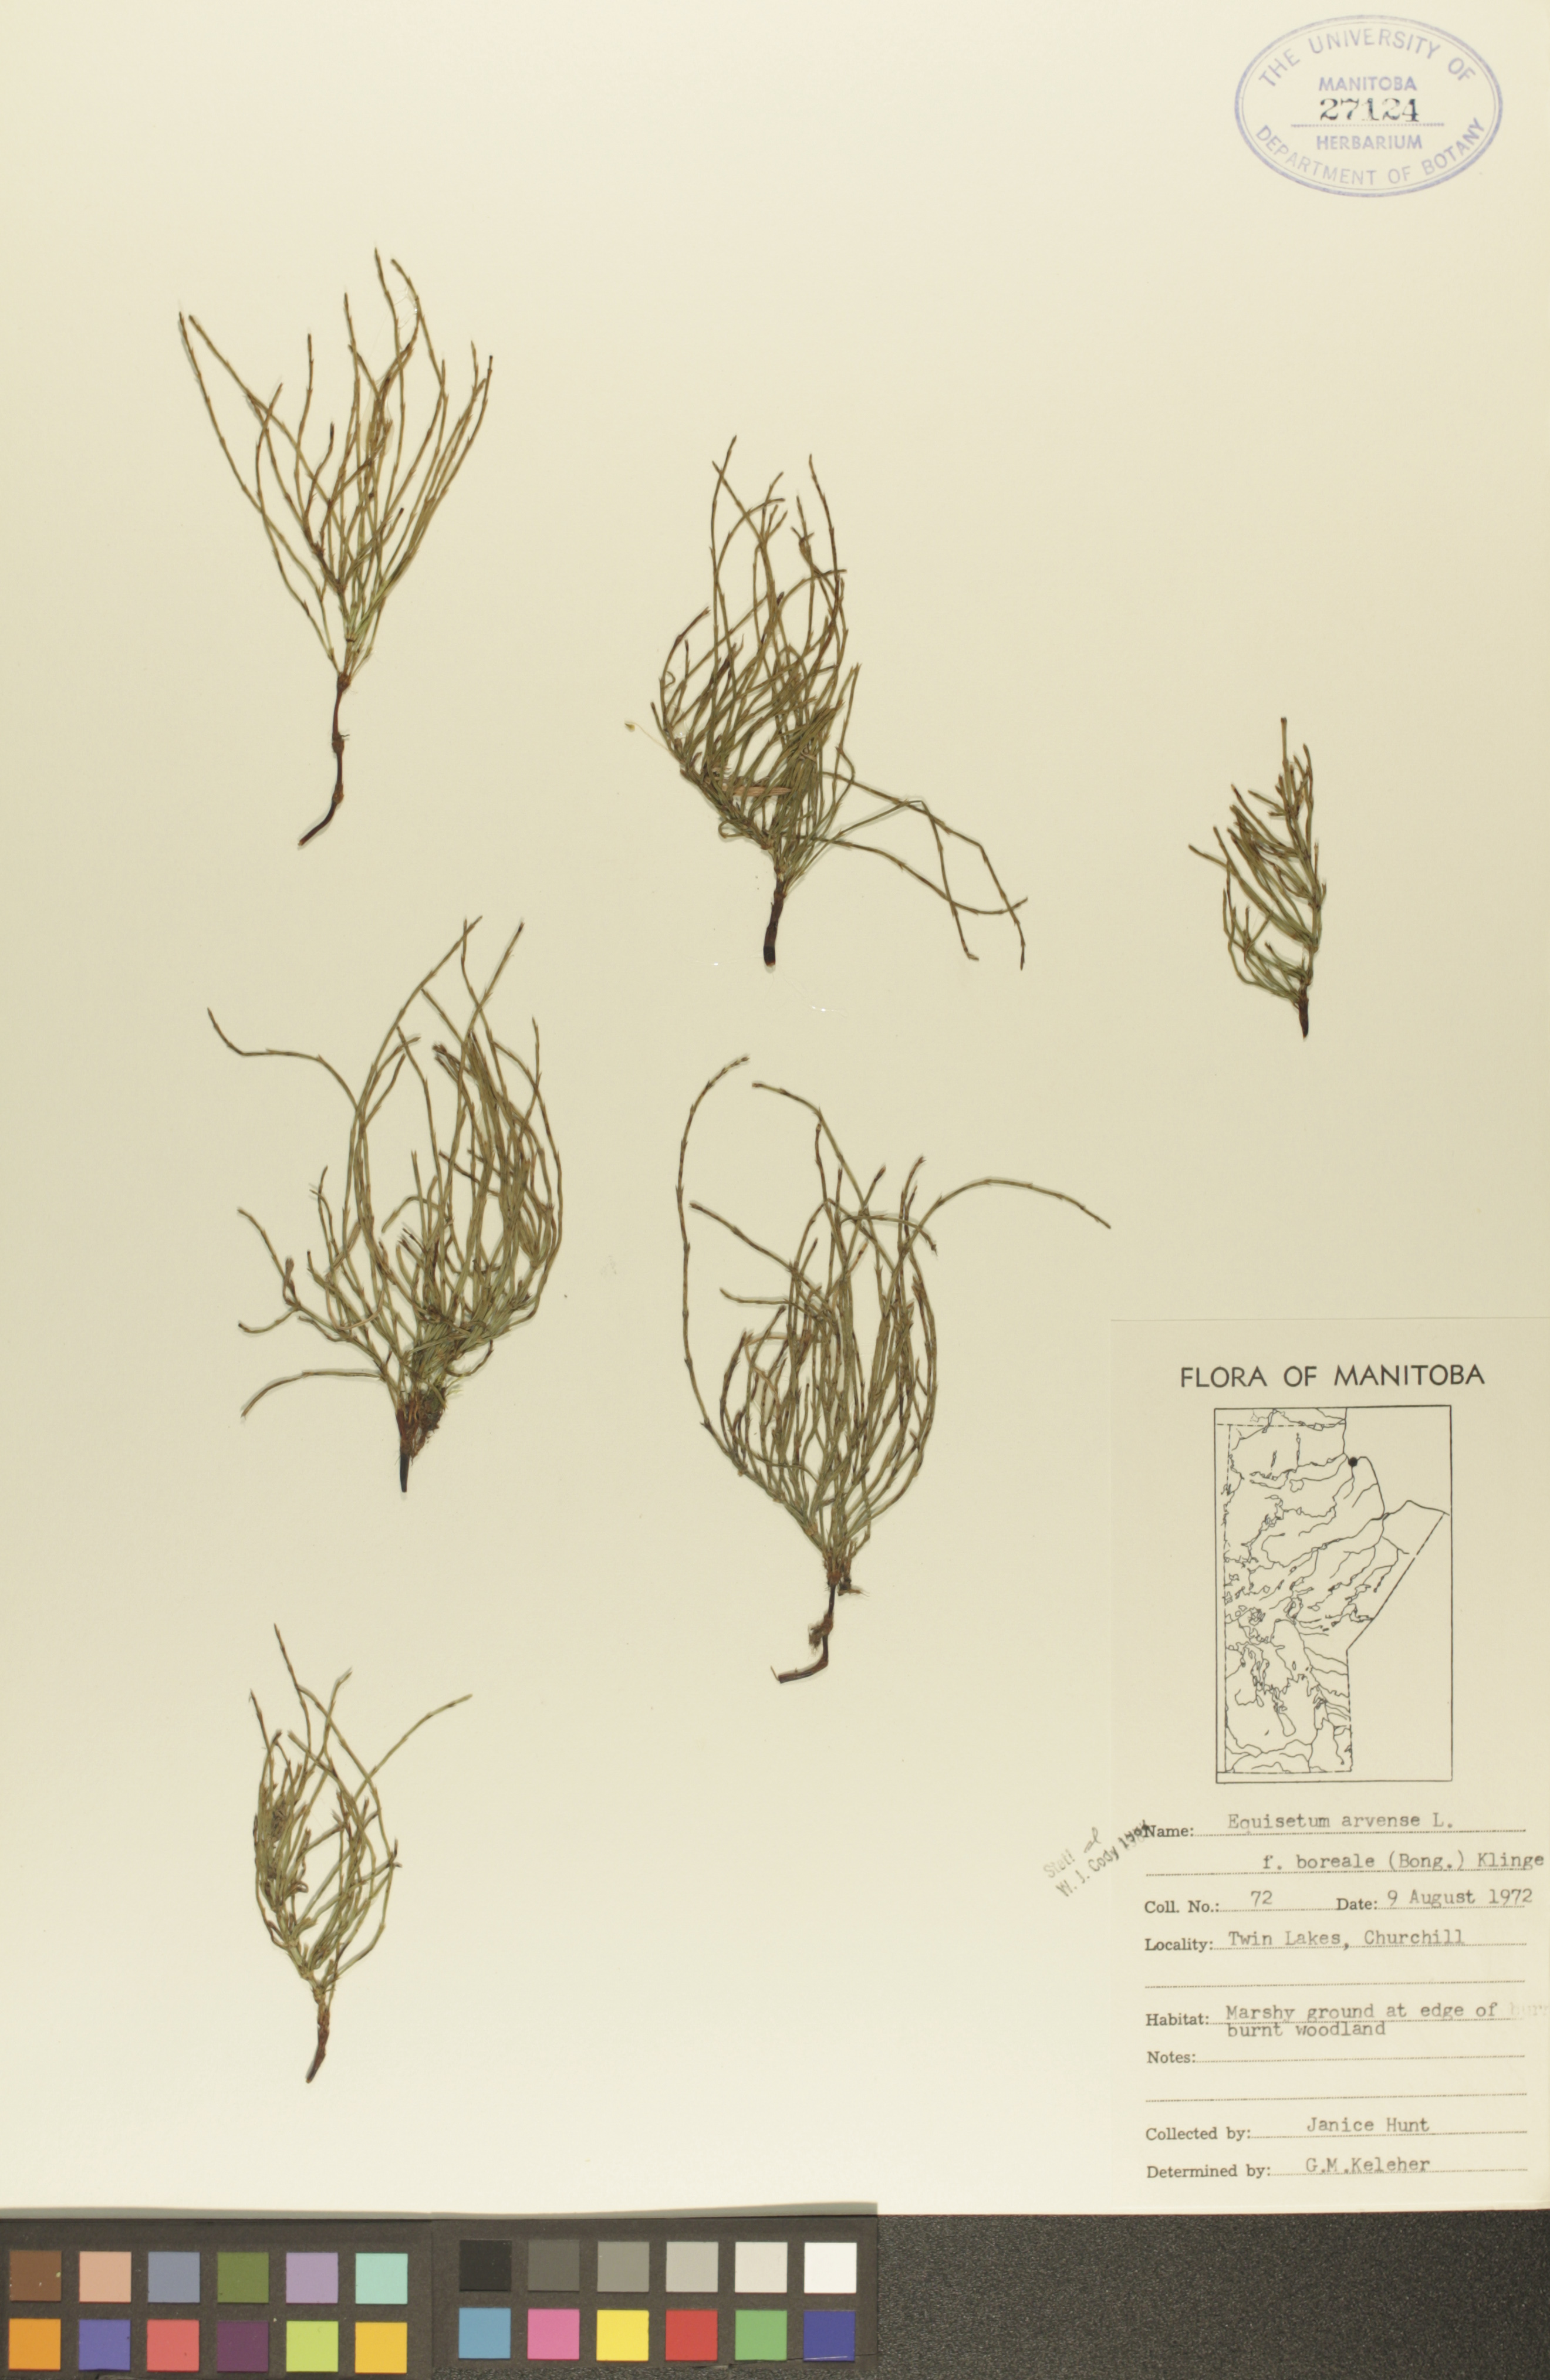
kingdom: Plantae
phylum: Tracheophyta
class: Polypodiopsida
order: Equisetales
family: Equisetaceae
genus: Equisetum
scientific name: Equisetum arvense
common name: Field horsetail
